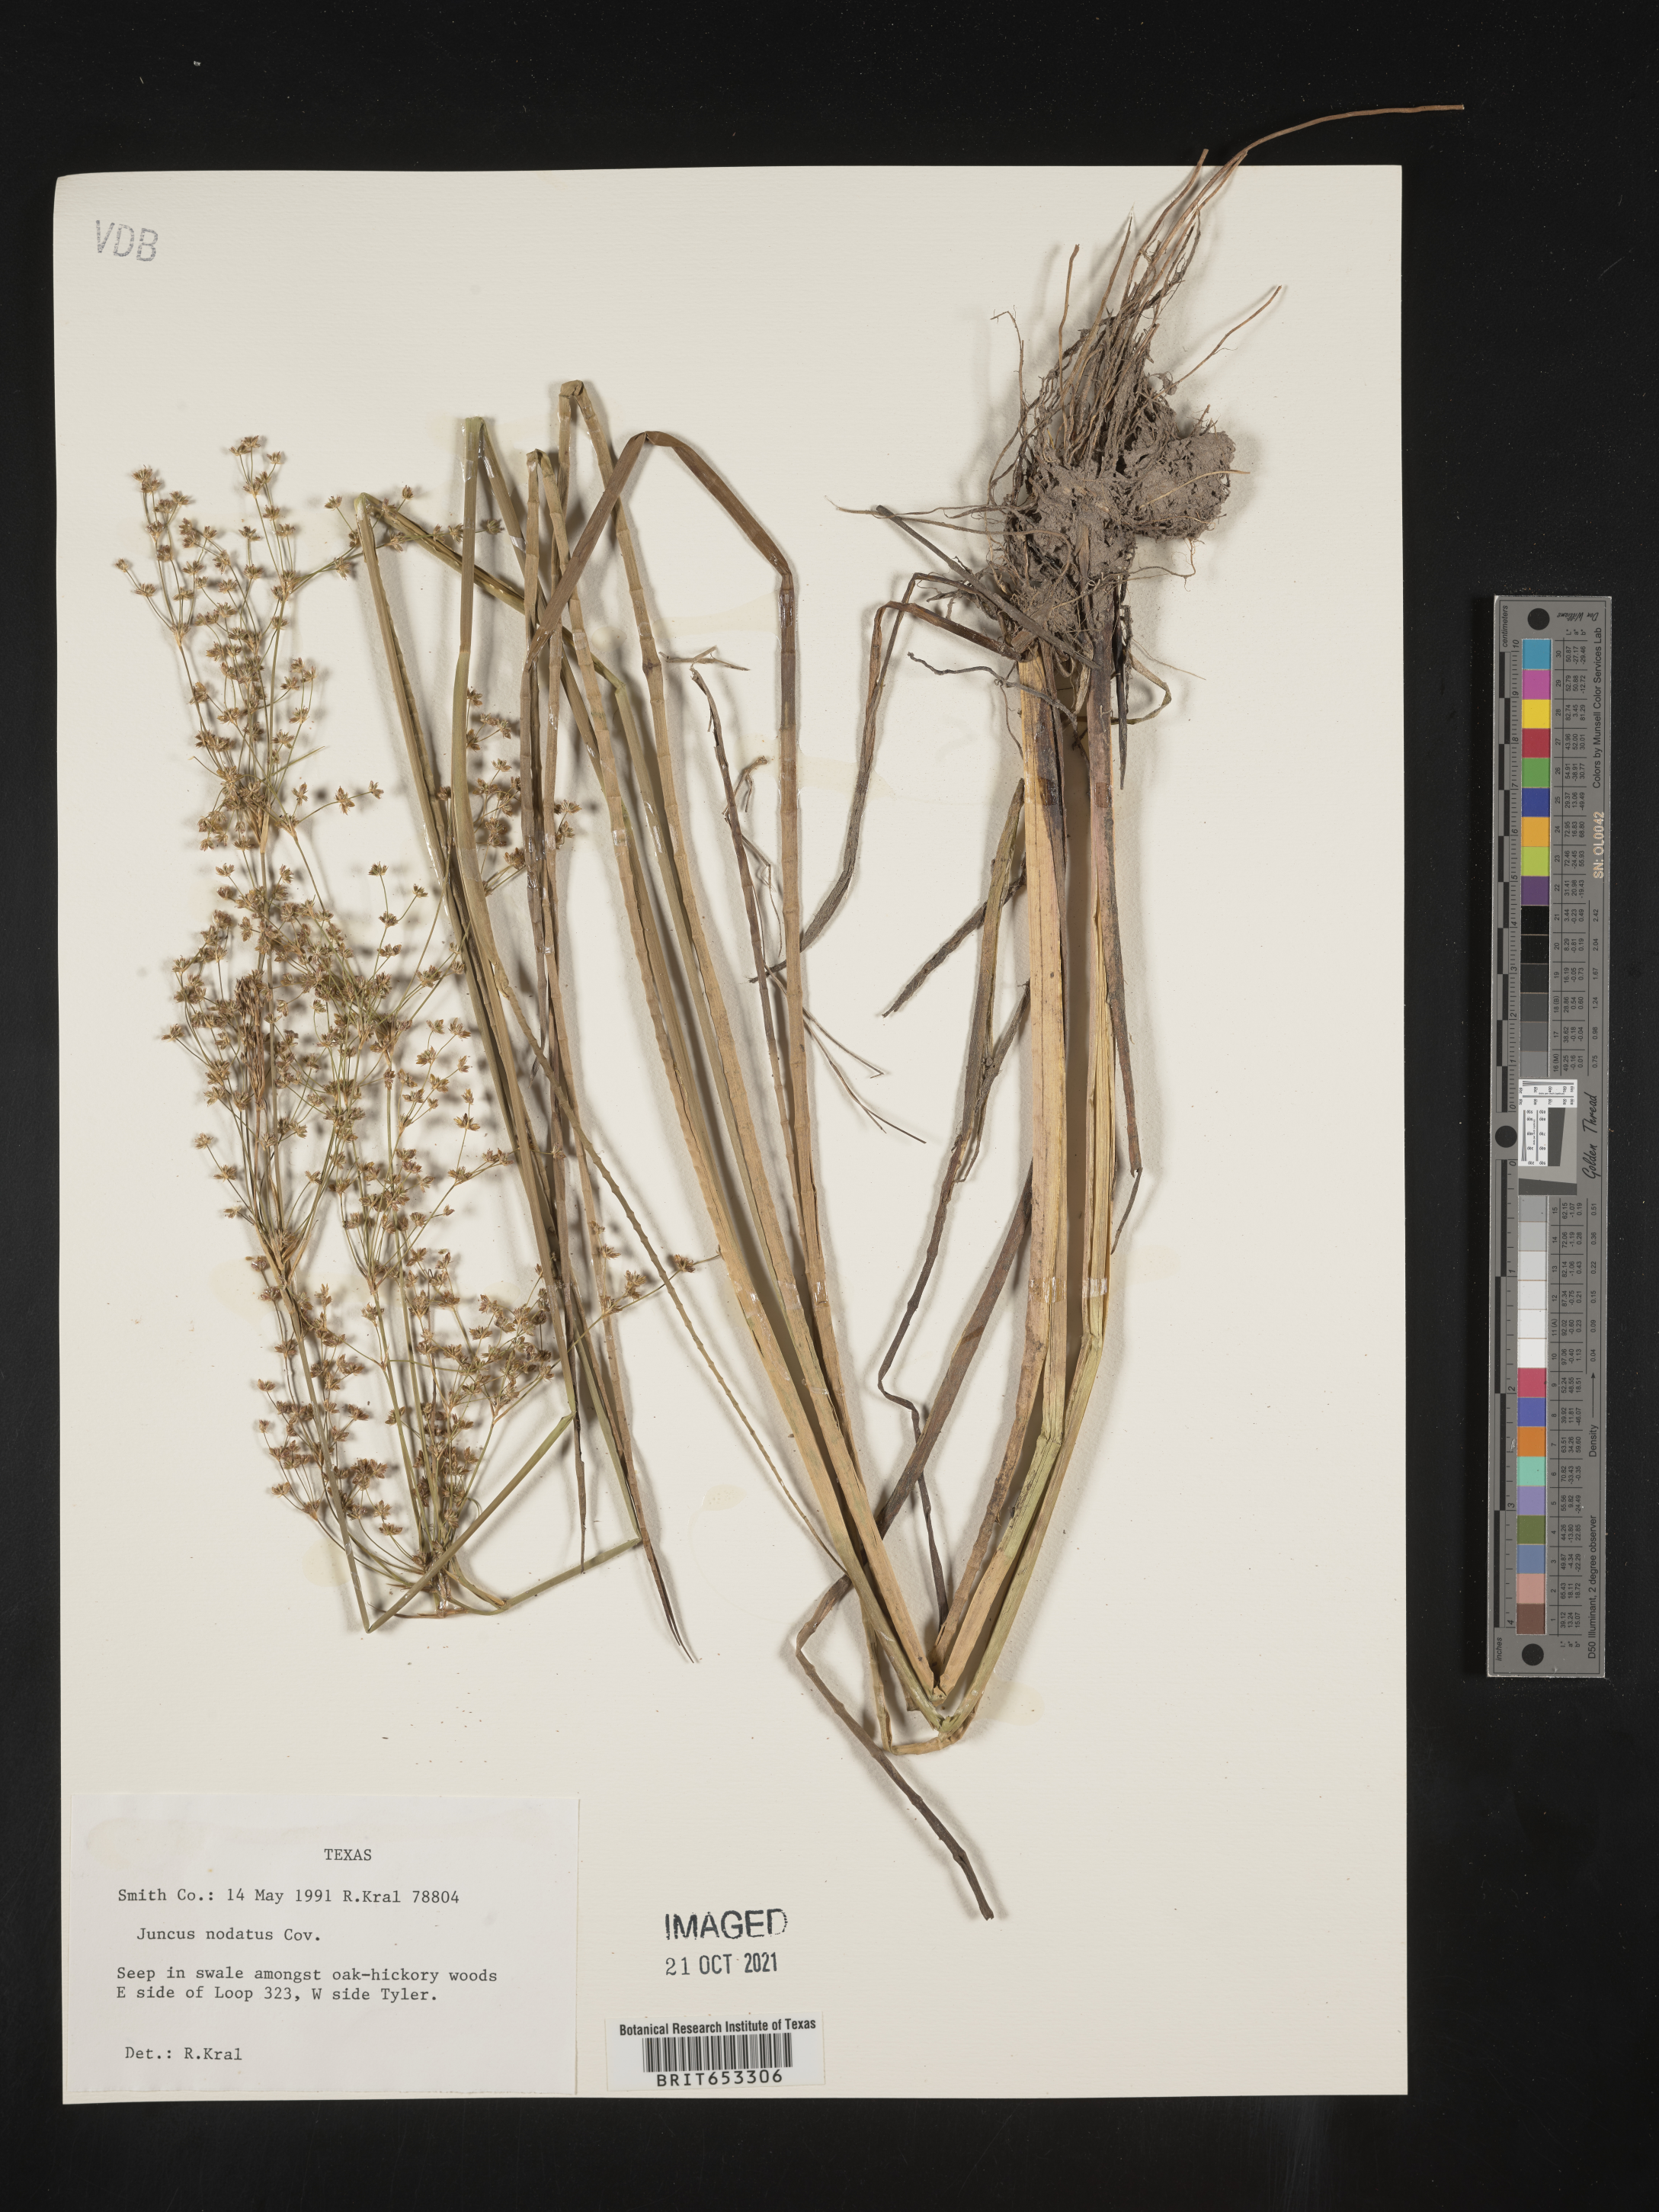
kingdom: Plantae
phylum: Tracheophyta
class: Liliopsida
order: Poales
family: Juncaceae
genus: Juncus
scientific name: Juncus nodatus
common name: Stout rush
